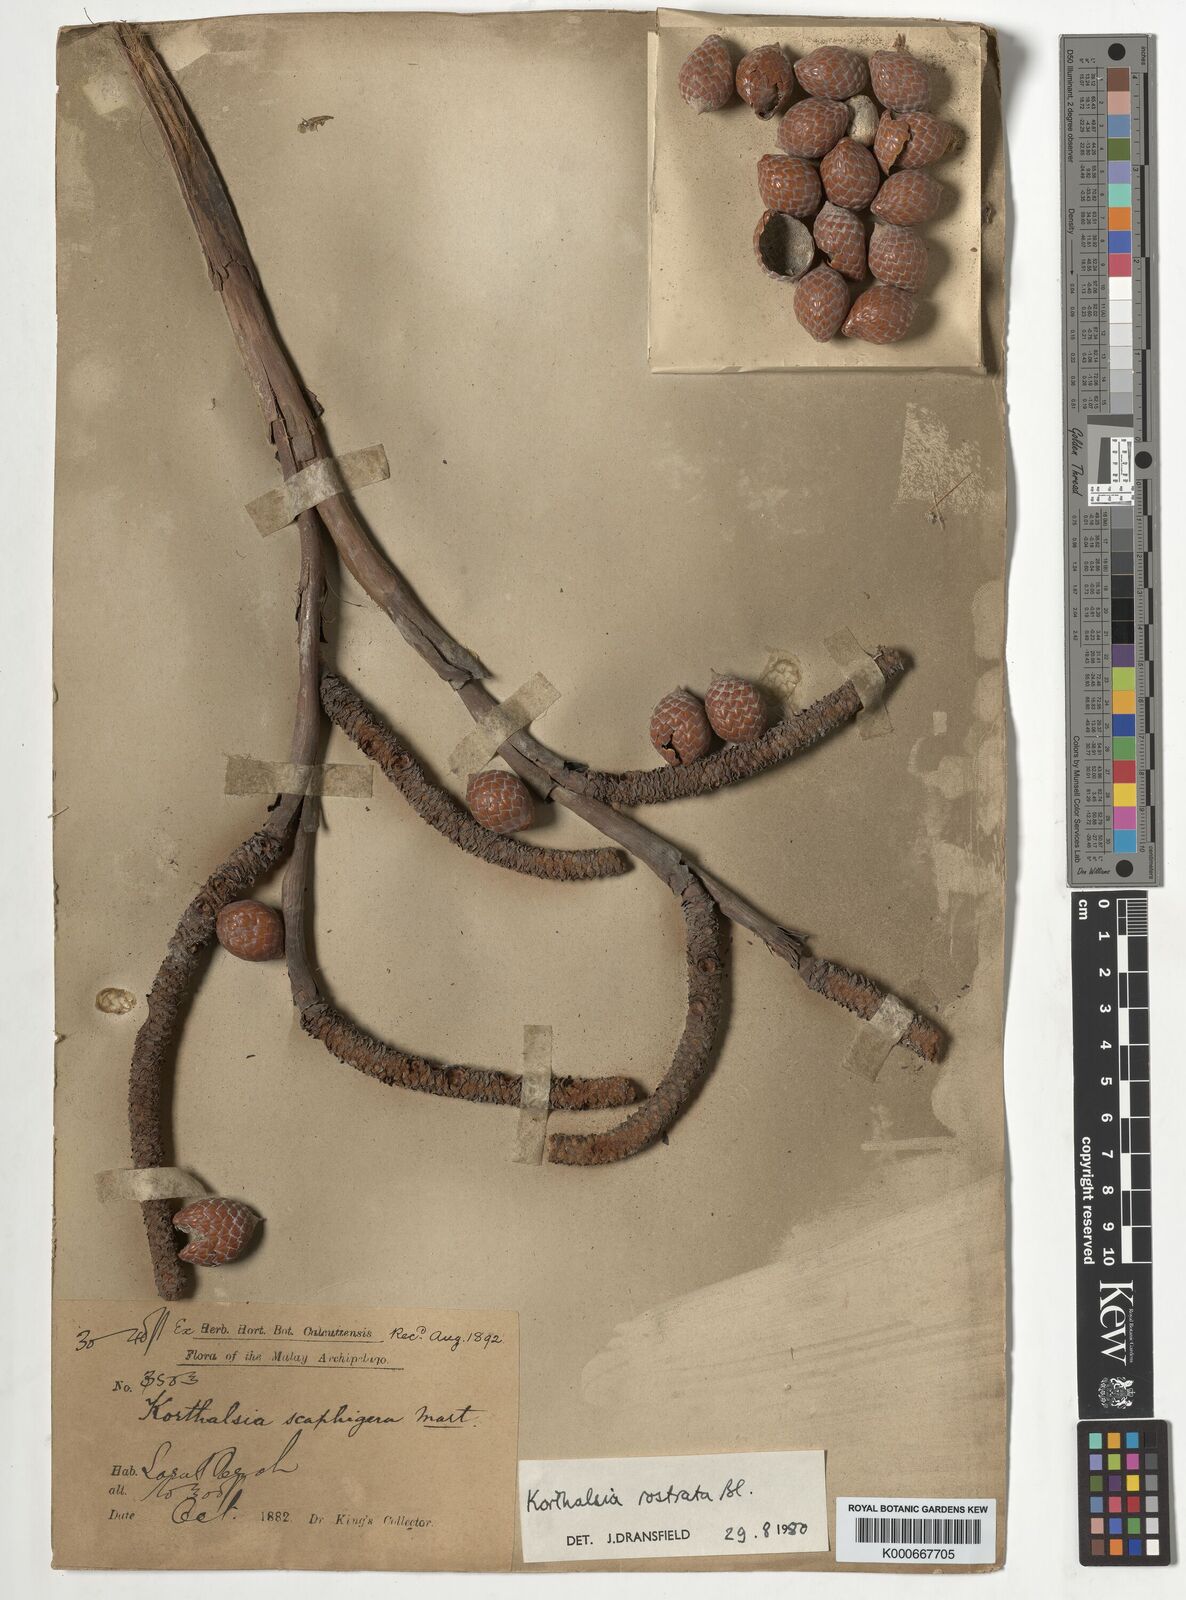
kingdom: Plantae
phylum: Tracheophyta
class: Liliopsida
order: Arecales
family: Arecaceae
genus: Korthalsia
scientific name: Korthalsia rostrata
